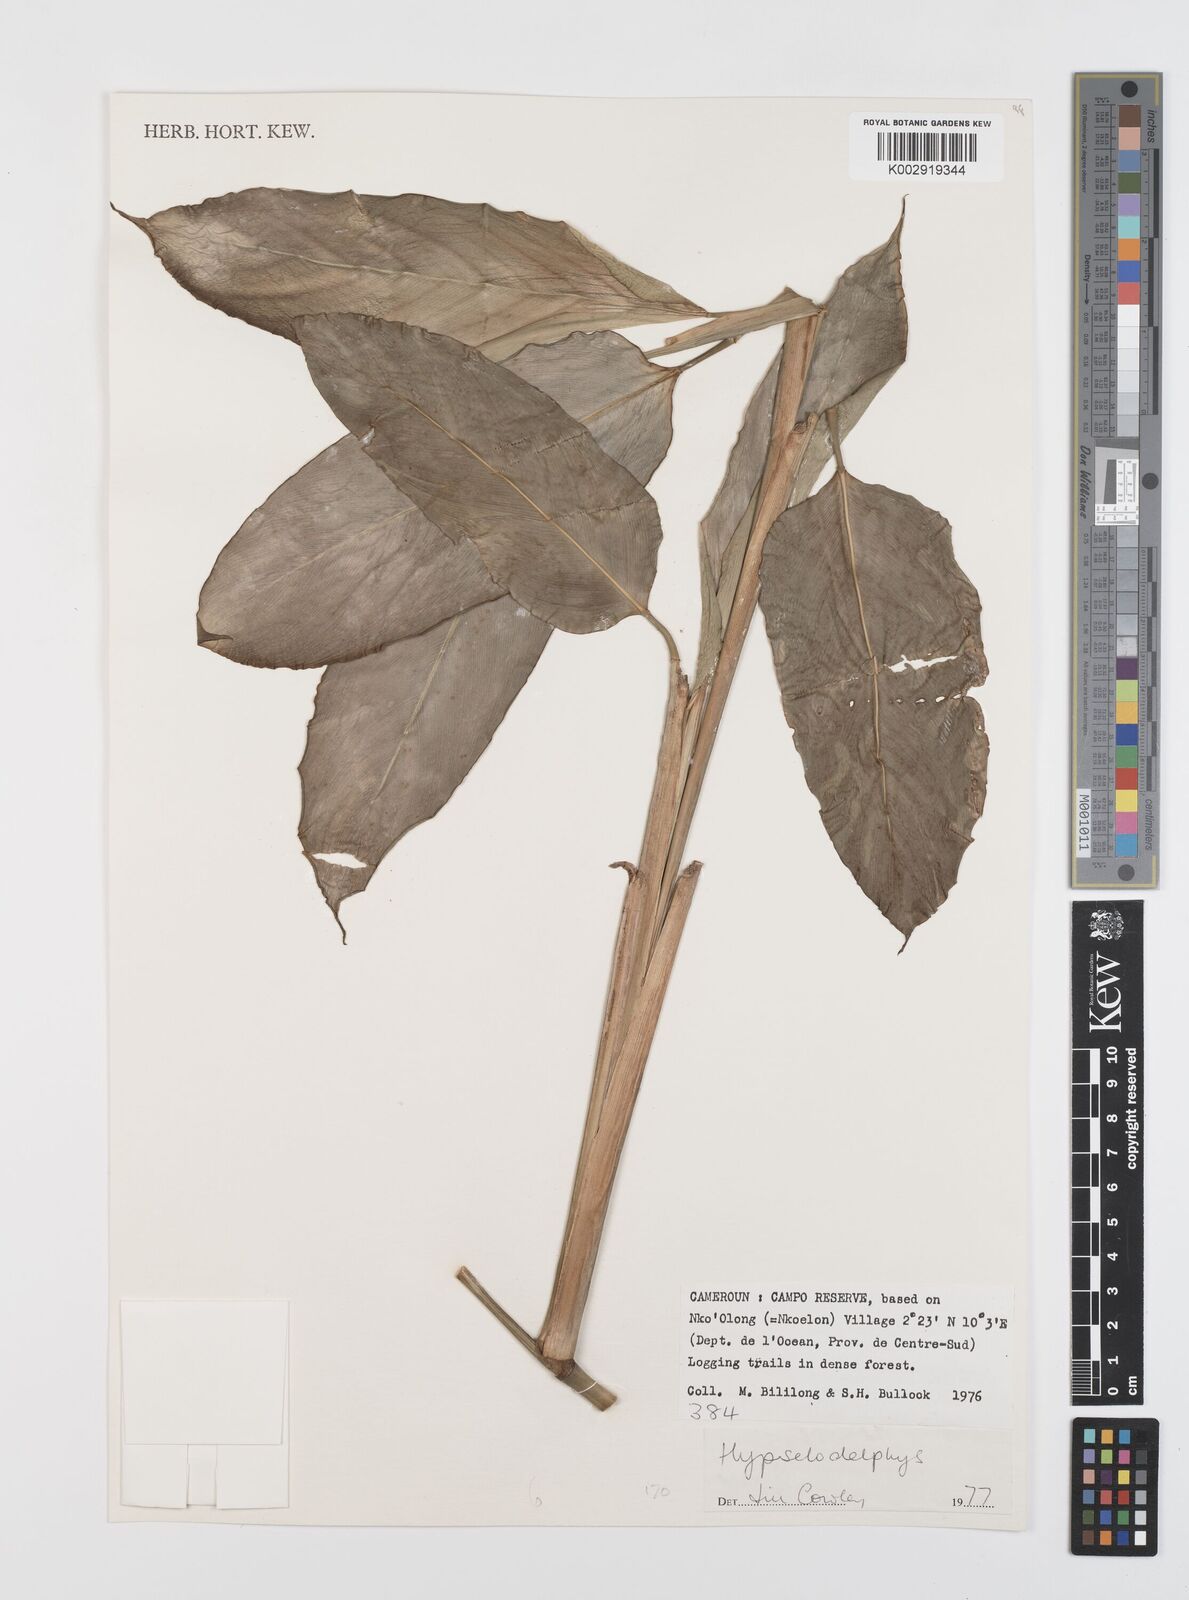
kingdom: Plantae
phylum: Tracheophyta
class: Liliopsida
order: Zingiberales
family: Marantaceae
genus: Hypselodelphys
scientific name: Hypselodelphys
